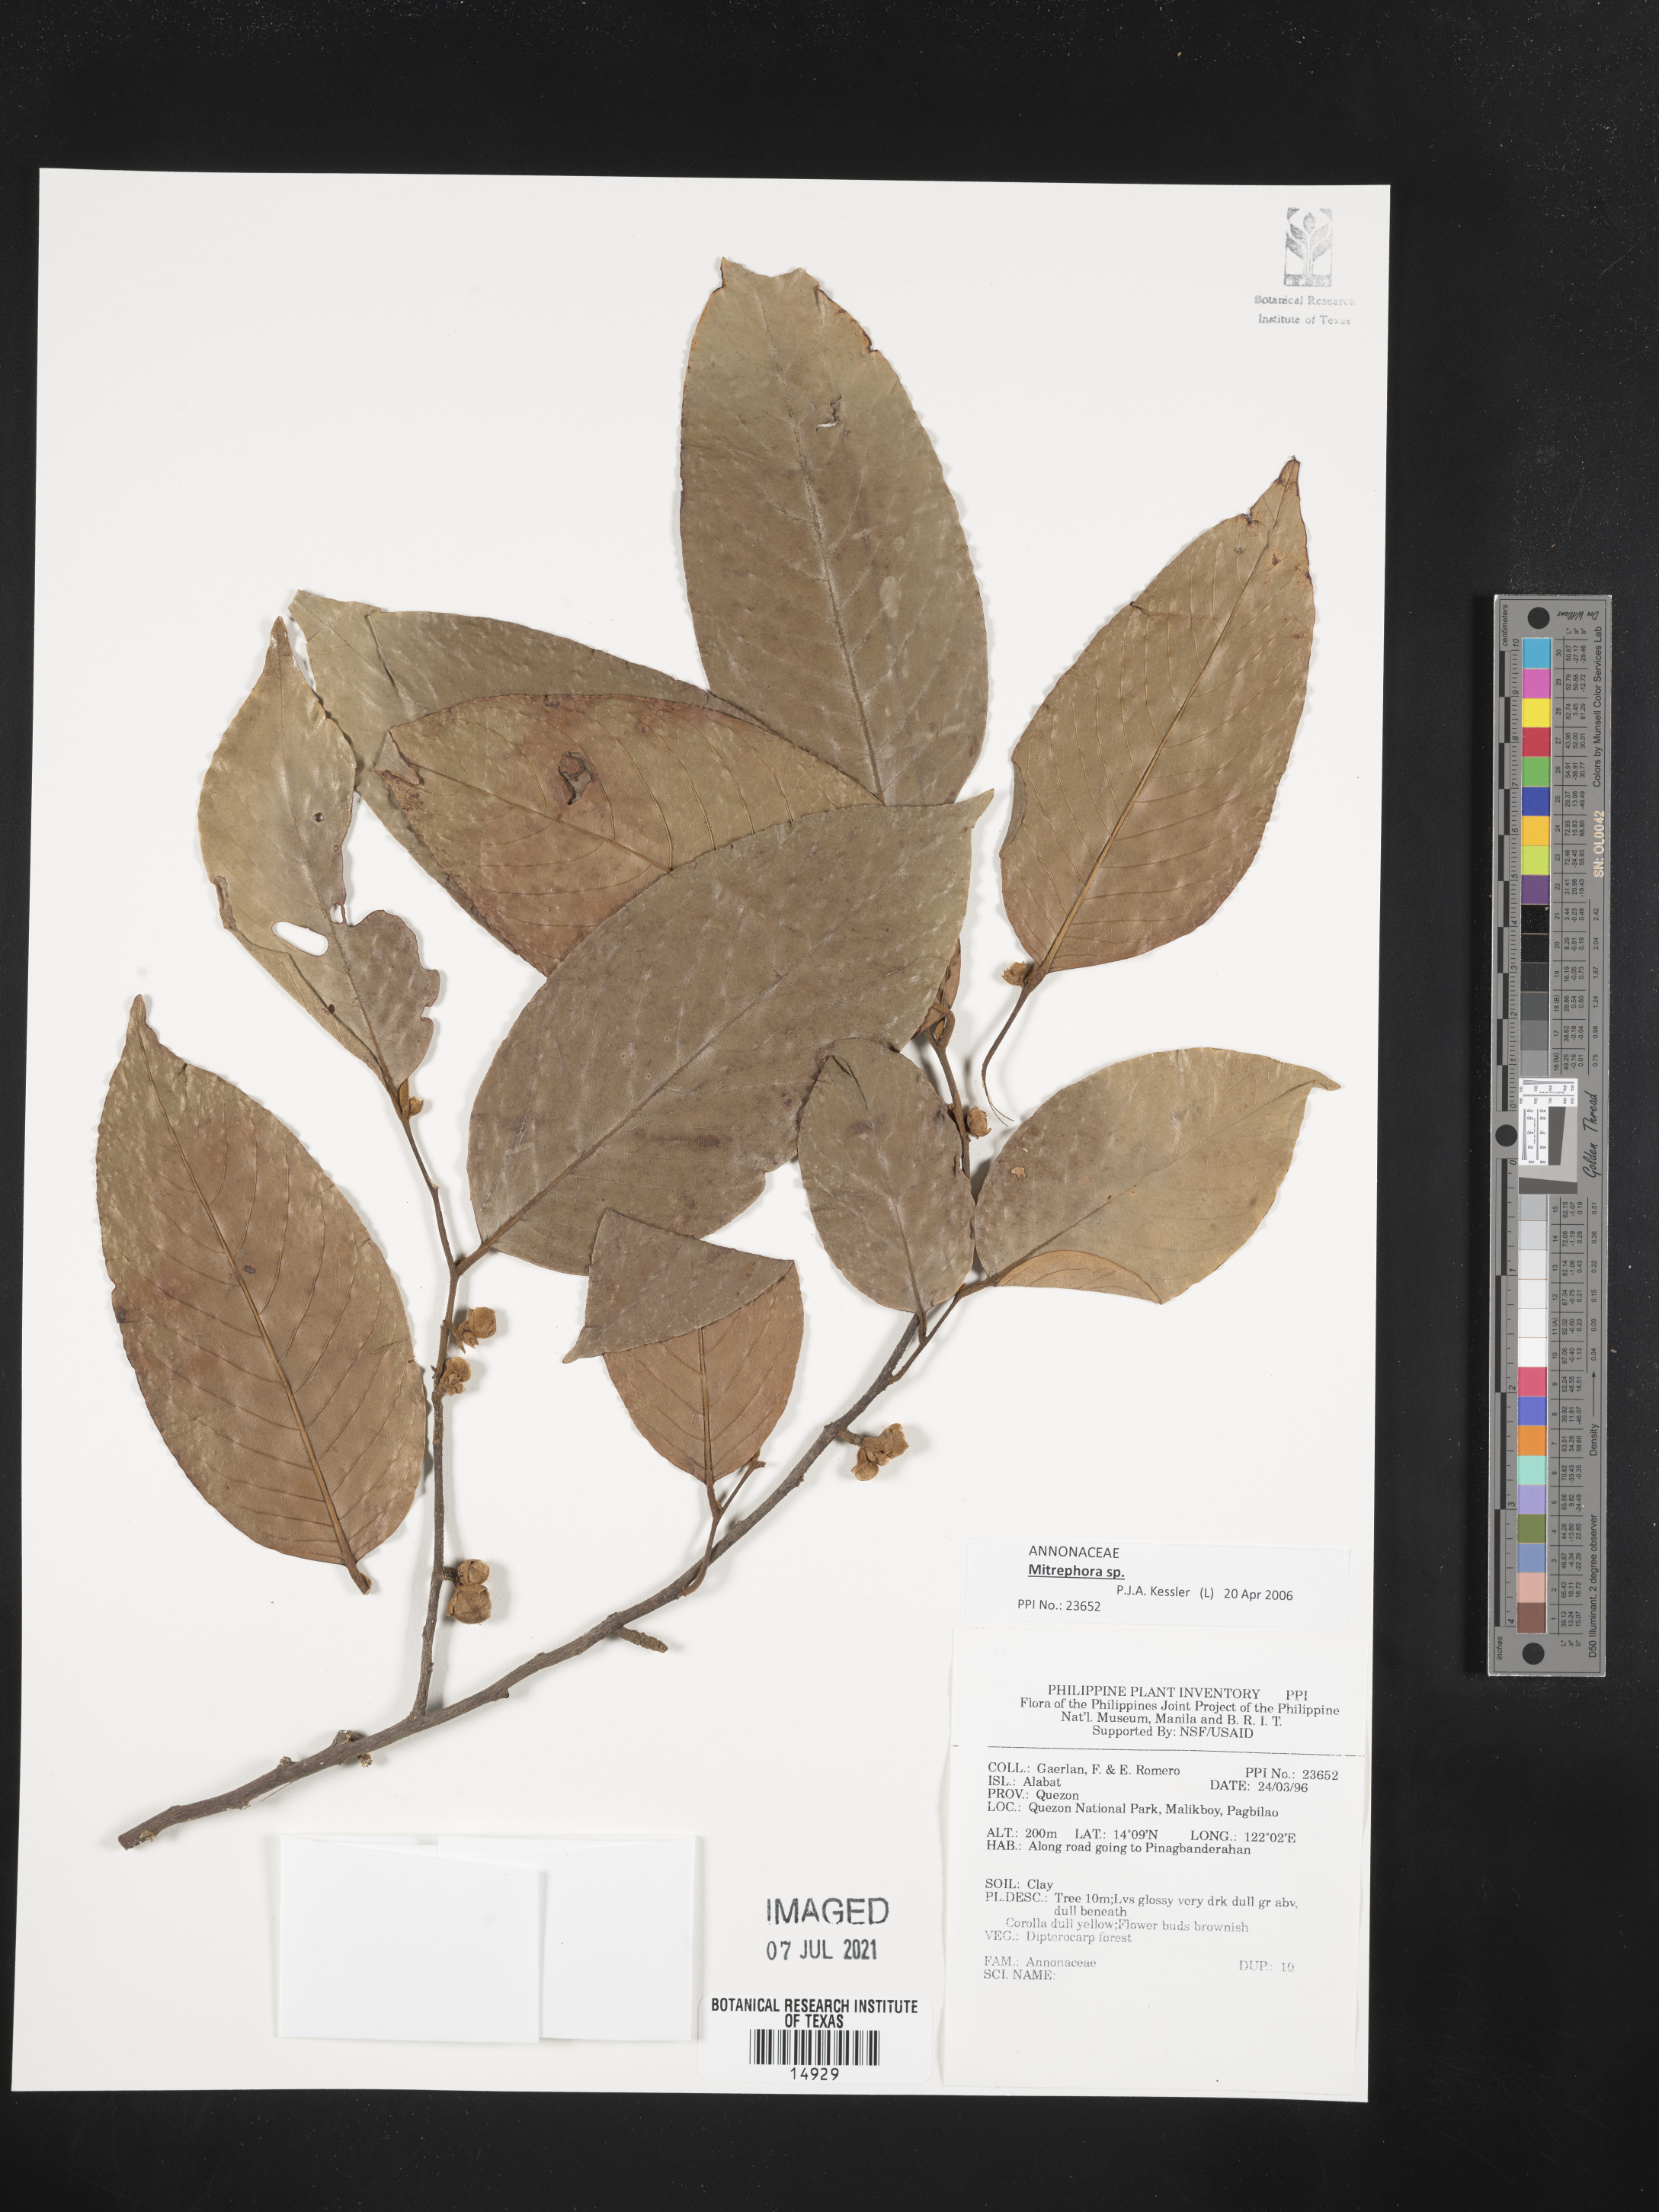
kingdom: Plantae
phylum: Tracheophyta
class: Magnoliopsida
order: Magnoliales
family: Annonaceae
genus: Mitrephora
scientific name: Mitrephora
